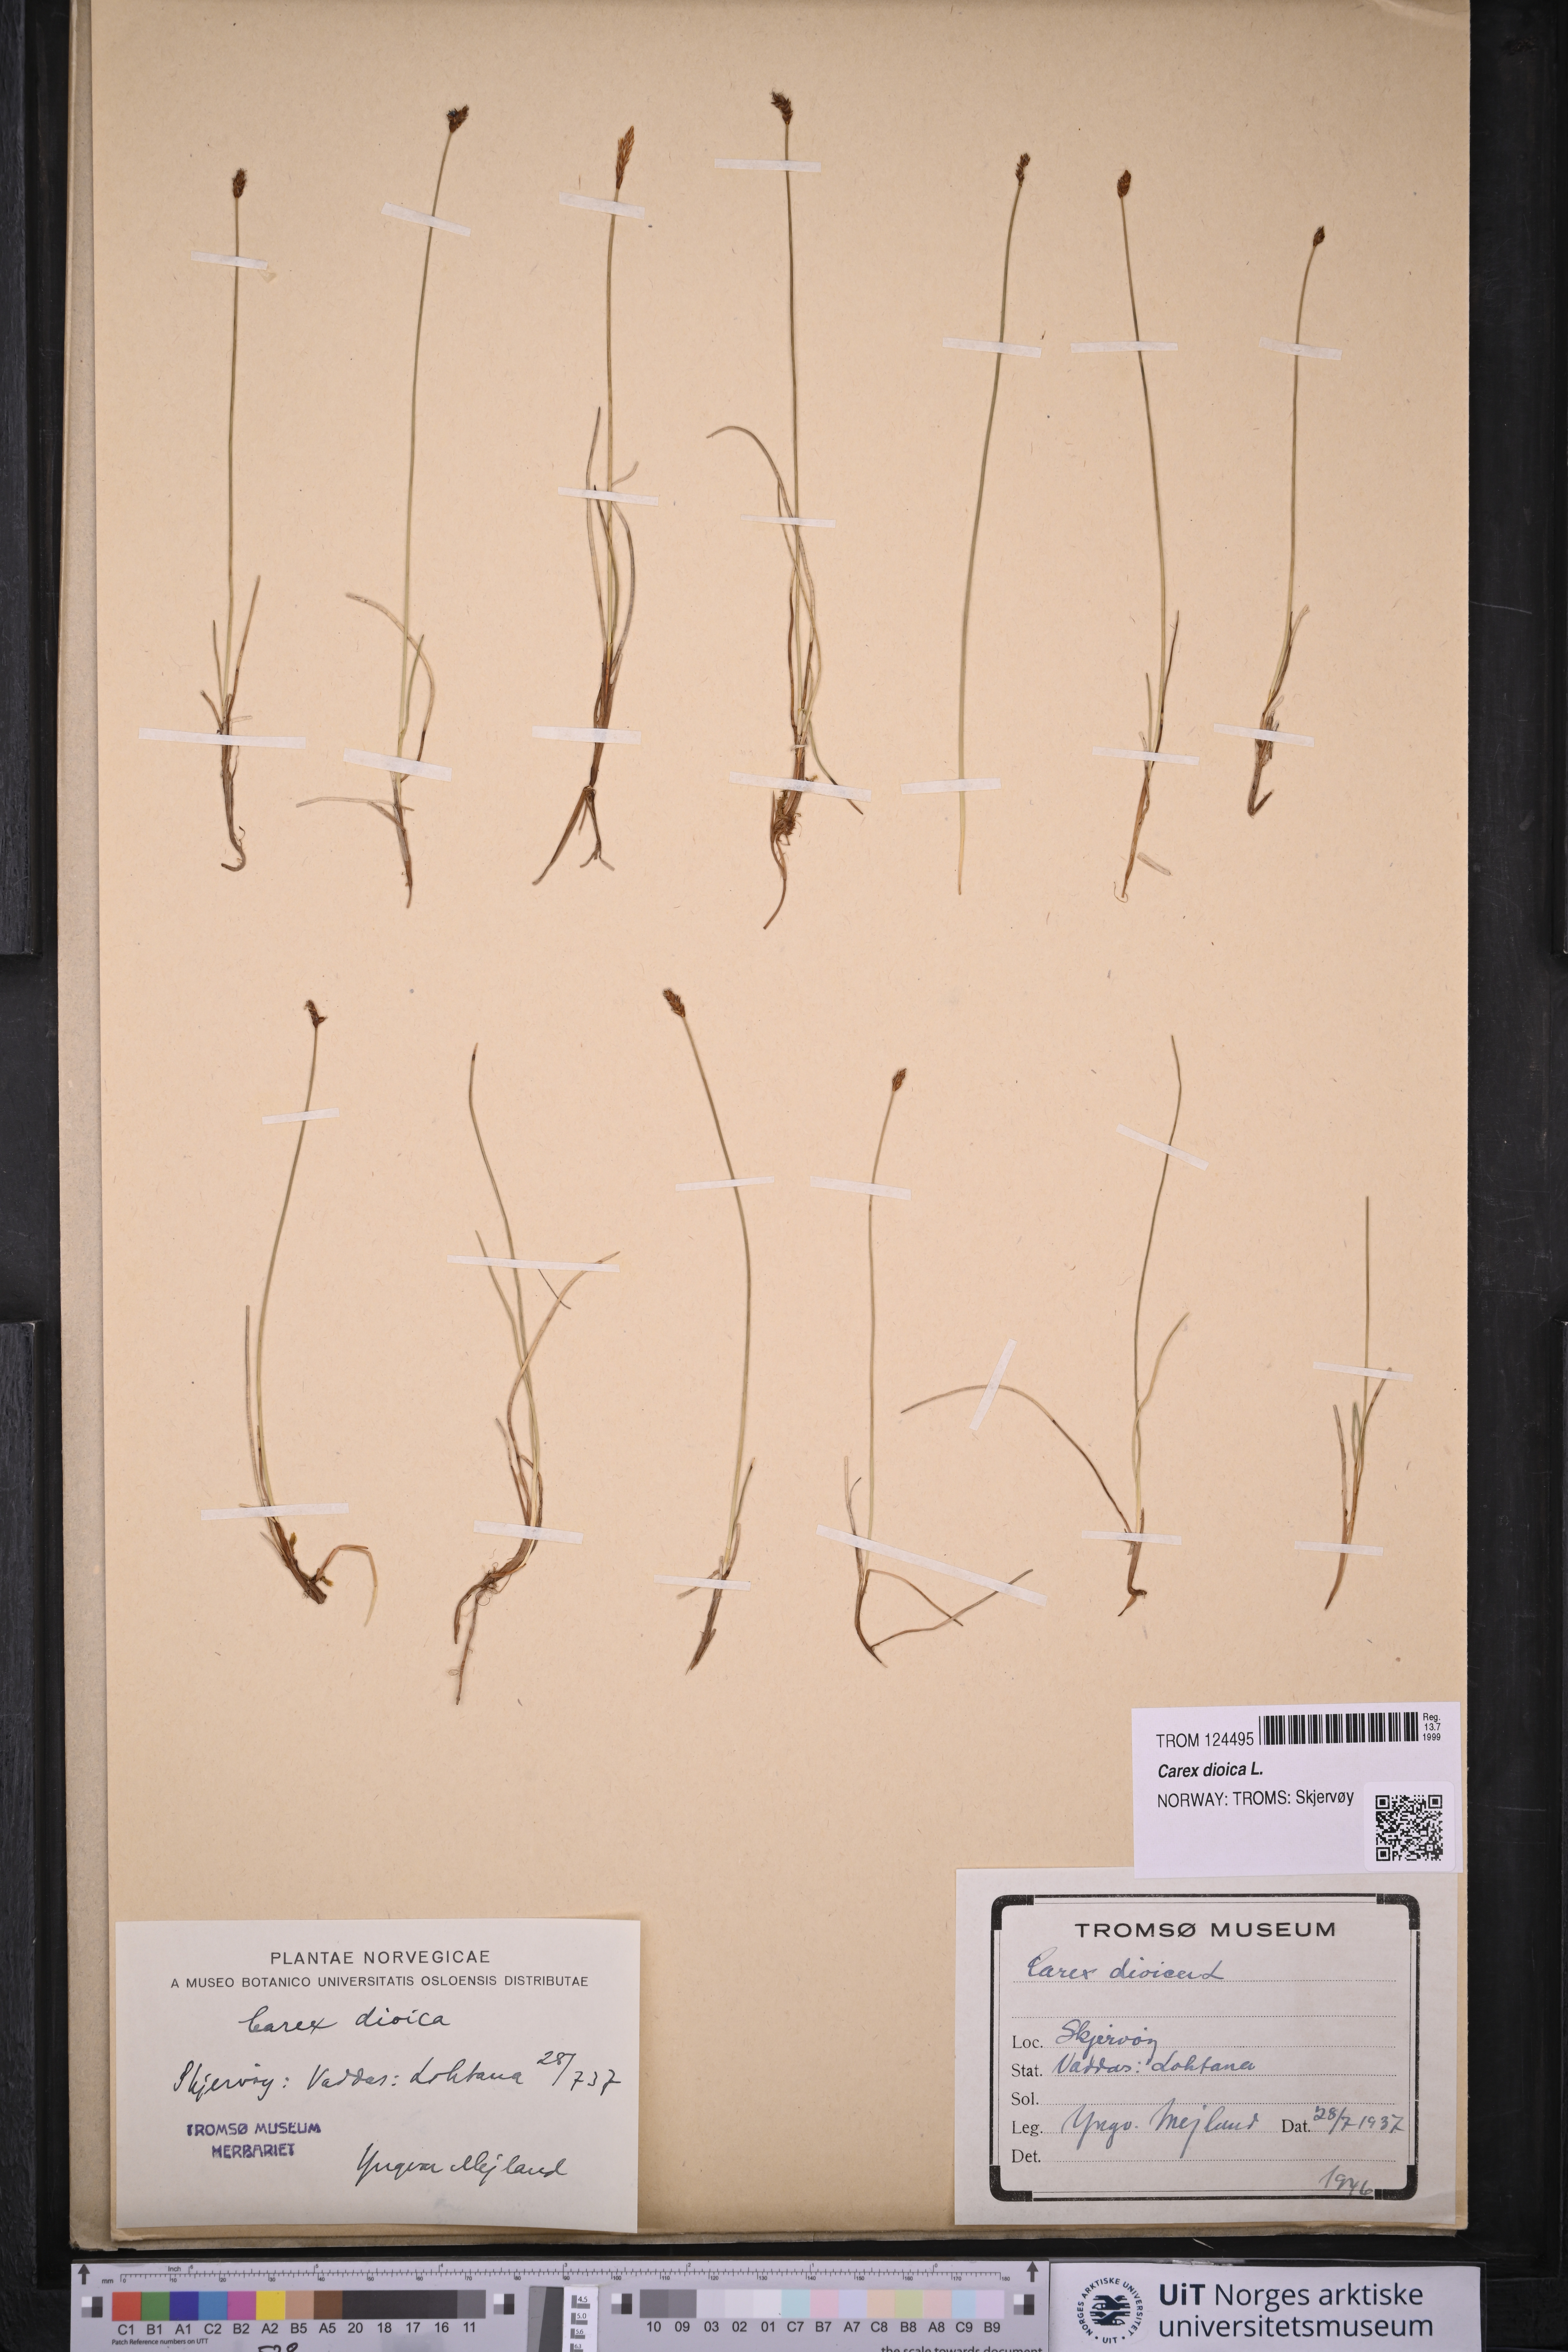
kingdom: Plantae
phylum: Tracheophyta
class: Liliopsida
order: Poales
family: Cyperaceae
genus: Carex
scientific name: Carex dioica
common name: Dioecious sedge
